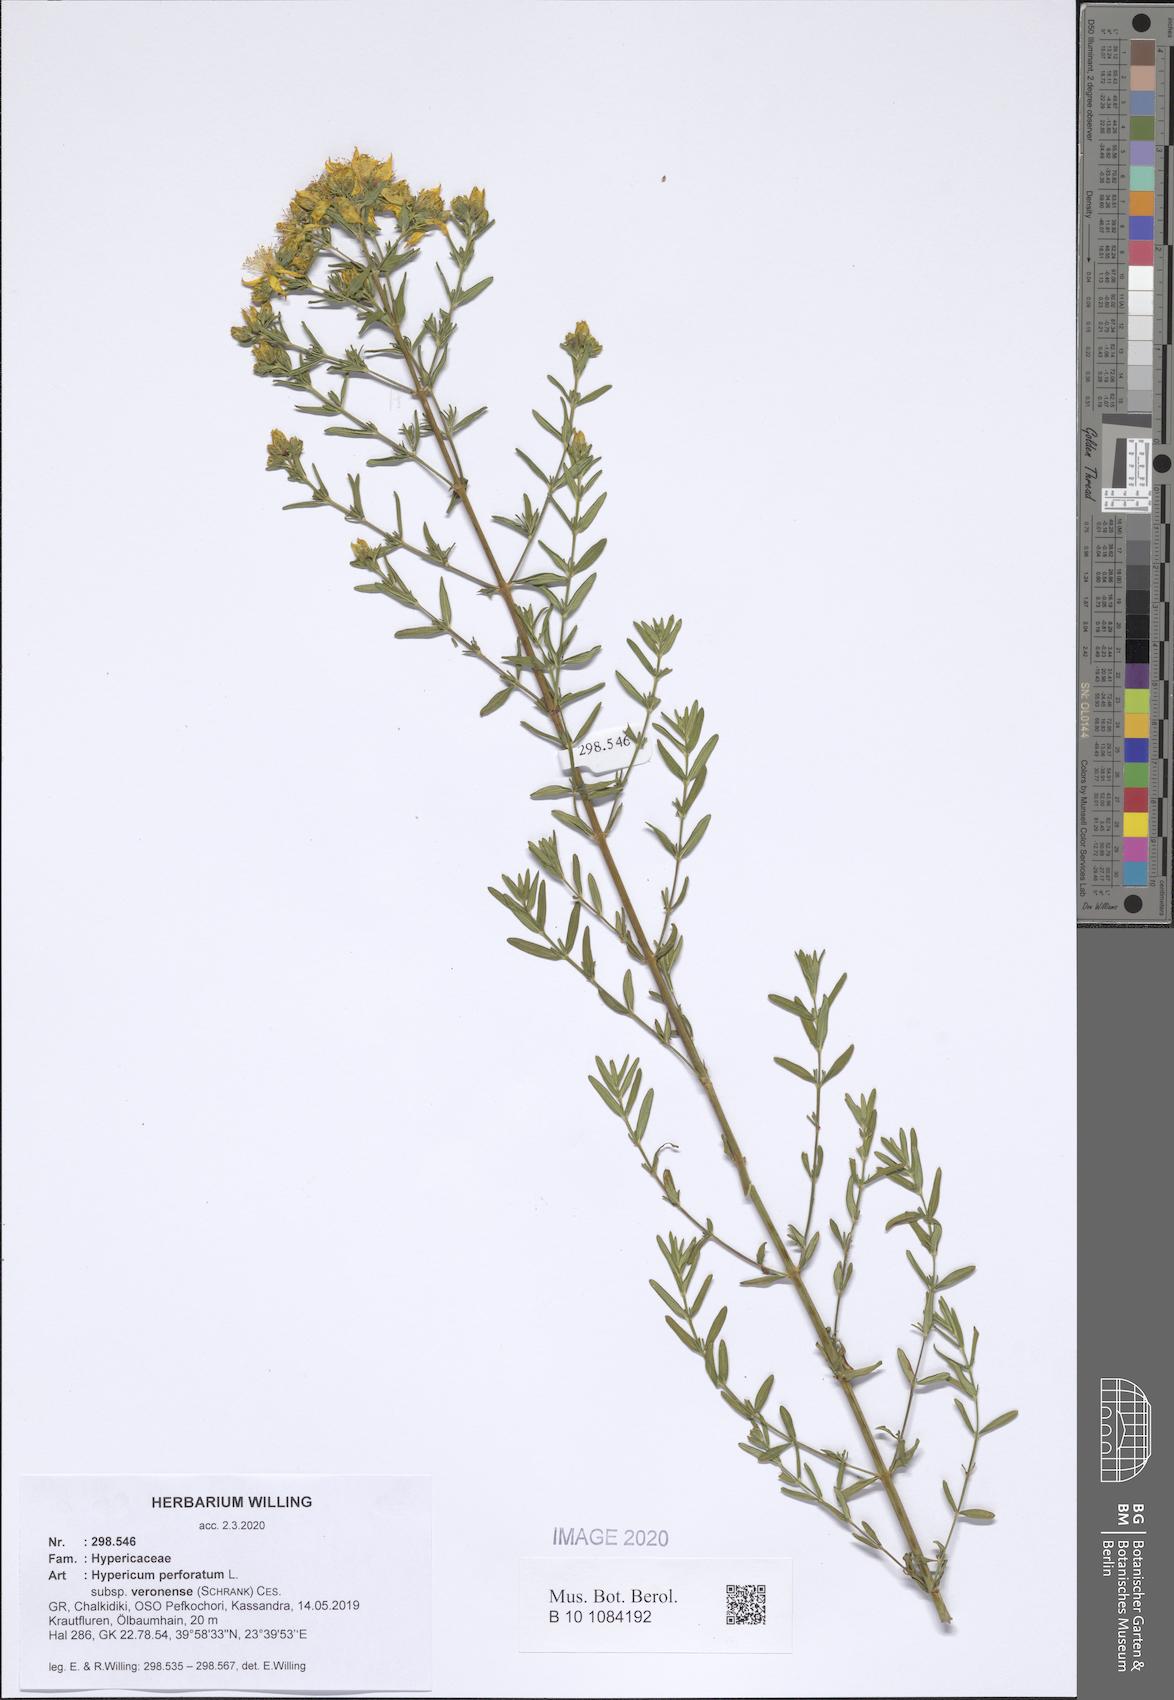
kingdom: Plantae
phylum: Tracheophyta
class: Magnoliopsida
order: Malpighiales
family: Hypericaceae
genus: Hypericum
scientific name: Hypericum veronense
